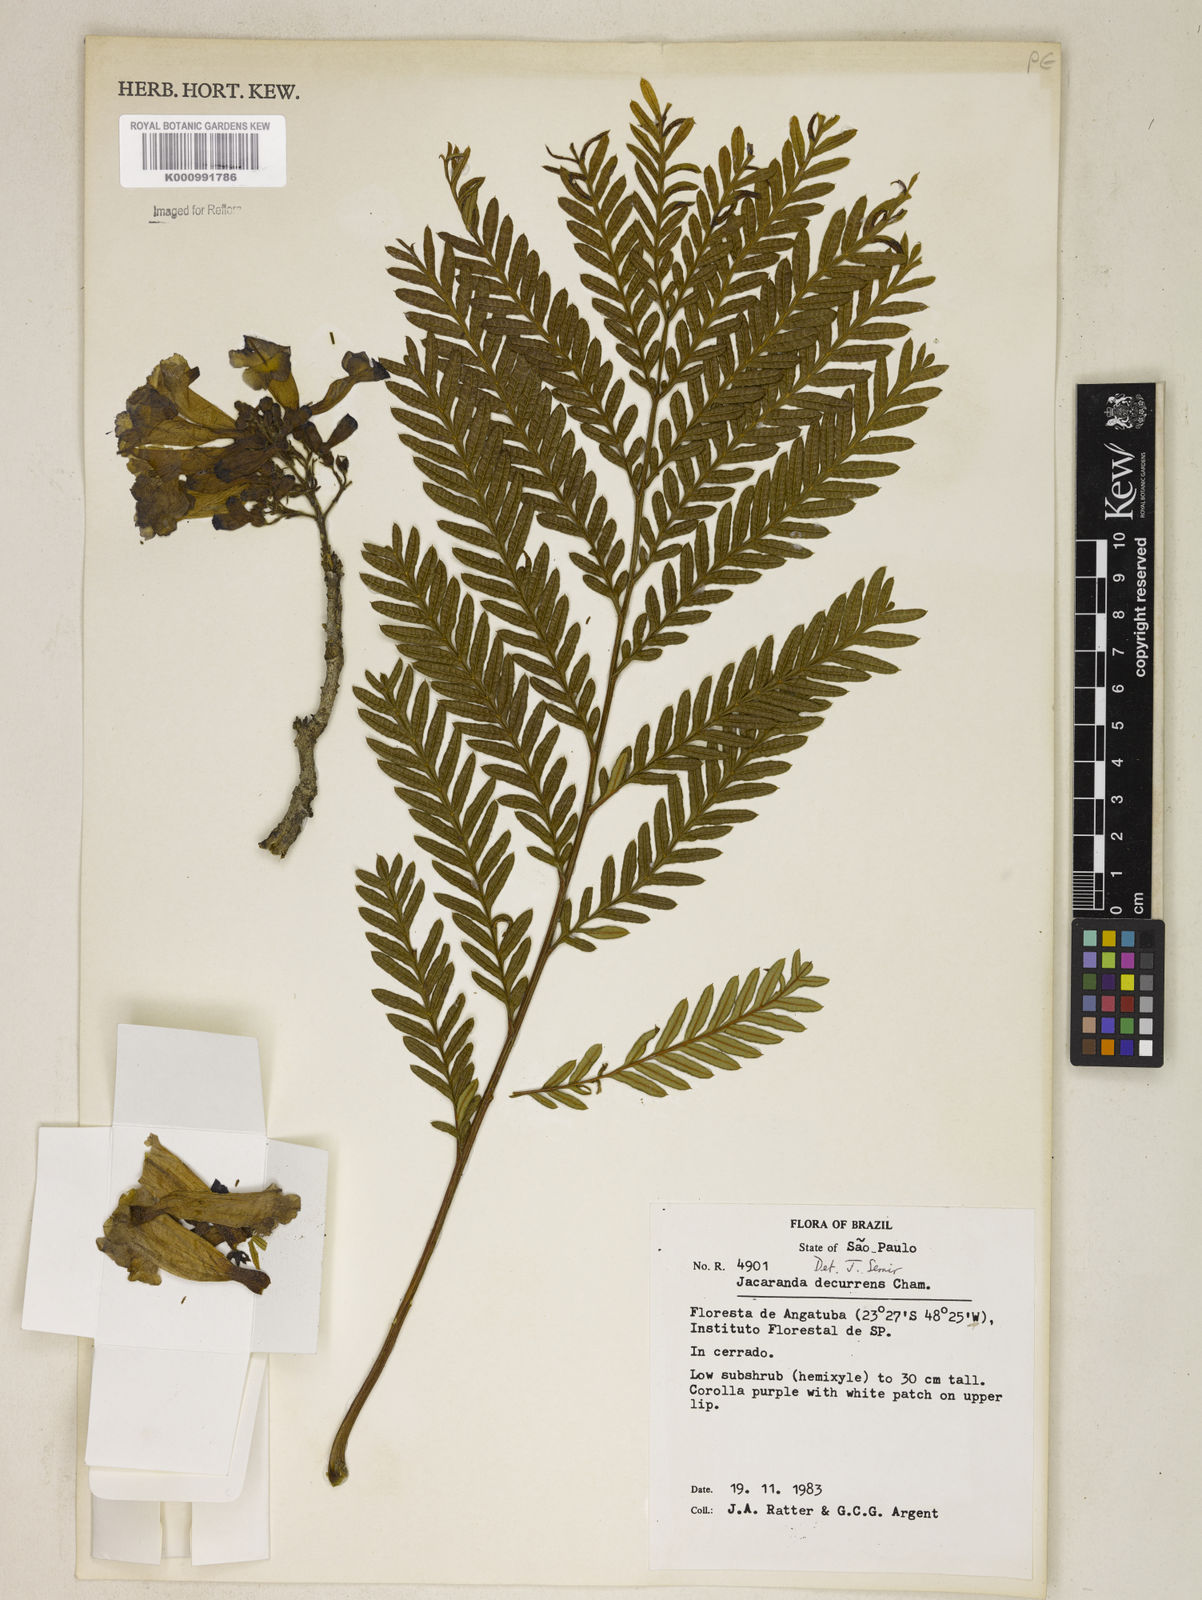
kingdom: Plantae
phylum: Tracheophyta
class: Magnoliopsida
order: Lamiales
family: Bignoniaceae
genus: Jacaranda
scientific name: Jacaranda decurrens
